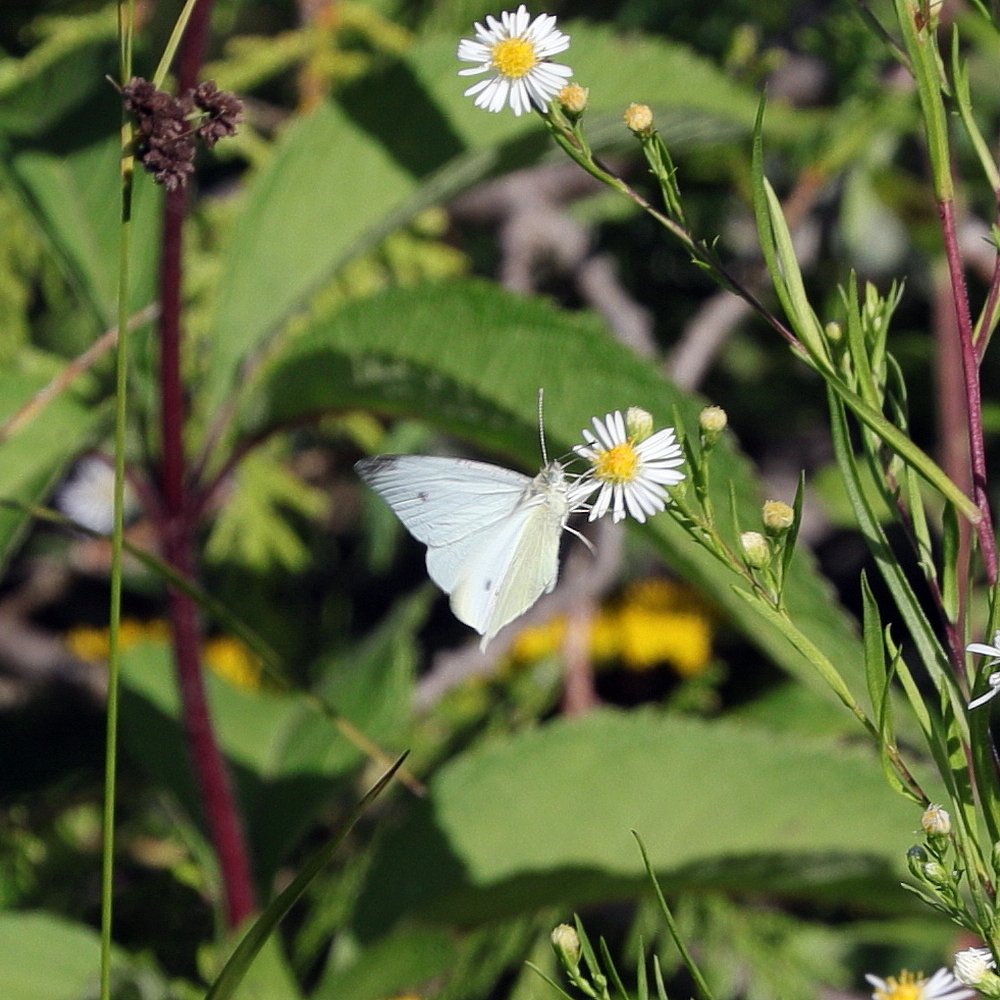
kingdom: Animalia
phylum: Arthropoda
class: Insecta
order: Lepidoptera
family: Pieridae
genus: Pieris
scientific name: Pieris rapae
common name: Cabbage White
